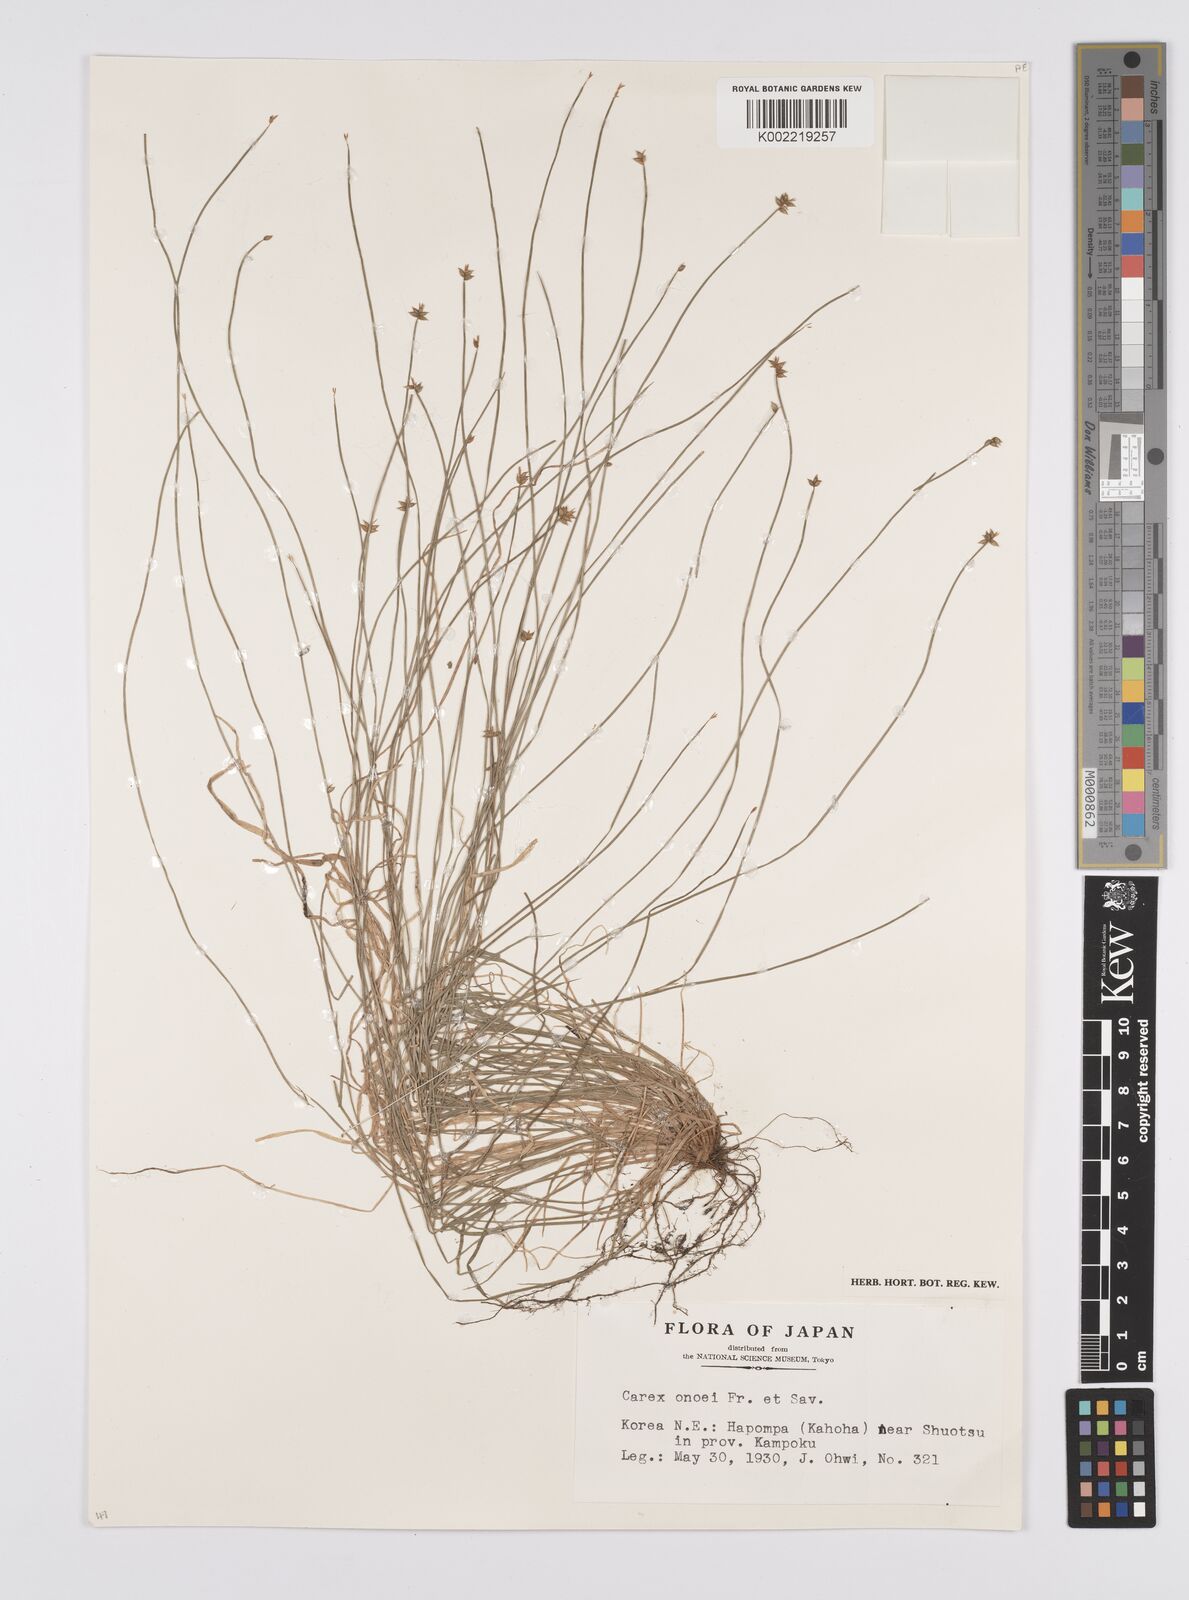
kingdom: Plantae
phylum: Tracheophyta
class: Liliopsida
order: Poales
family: Cyperaceae
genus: Carex
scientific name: Carex onoei
